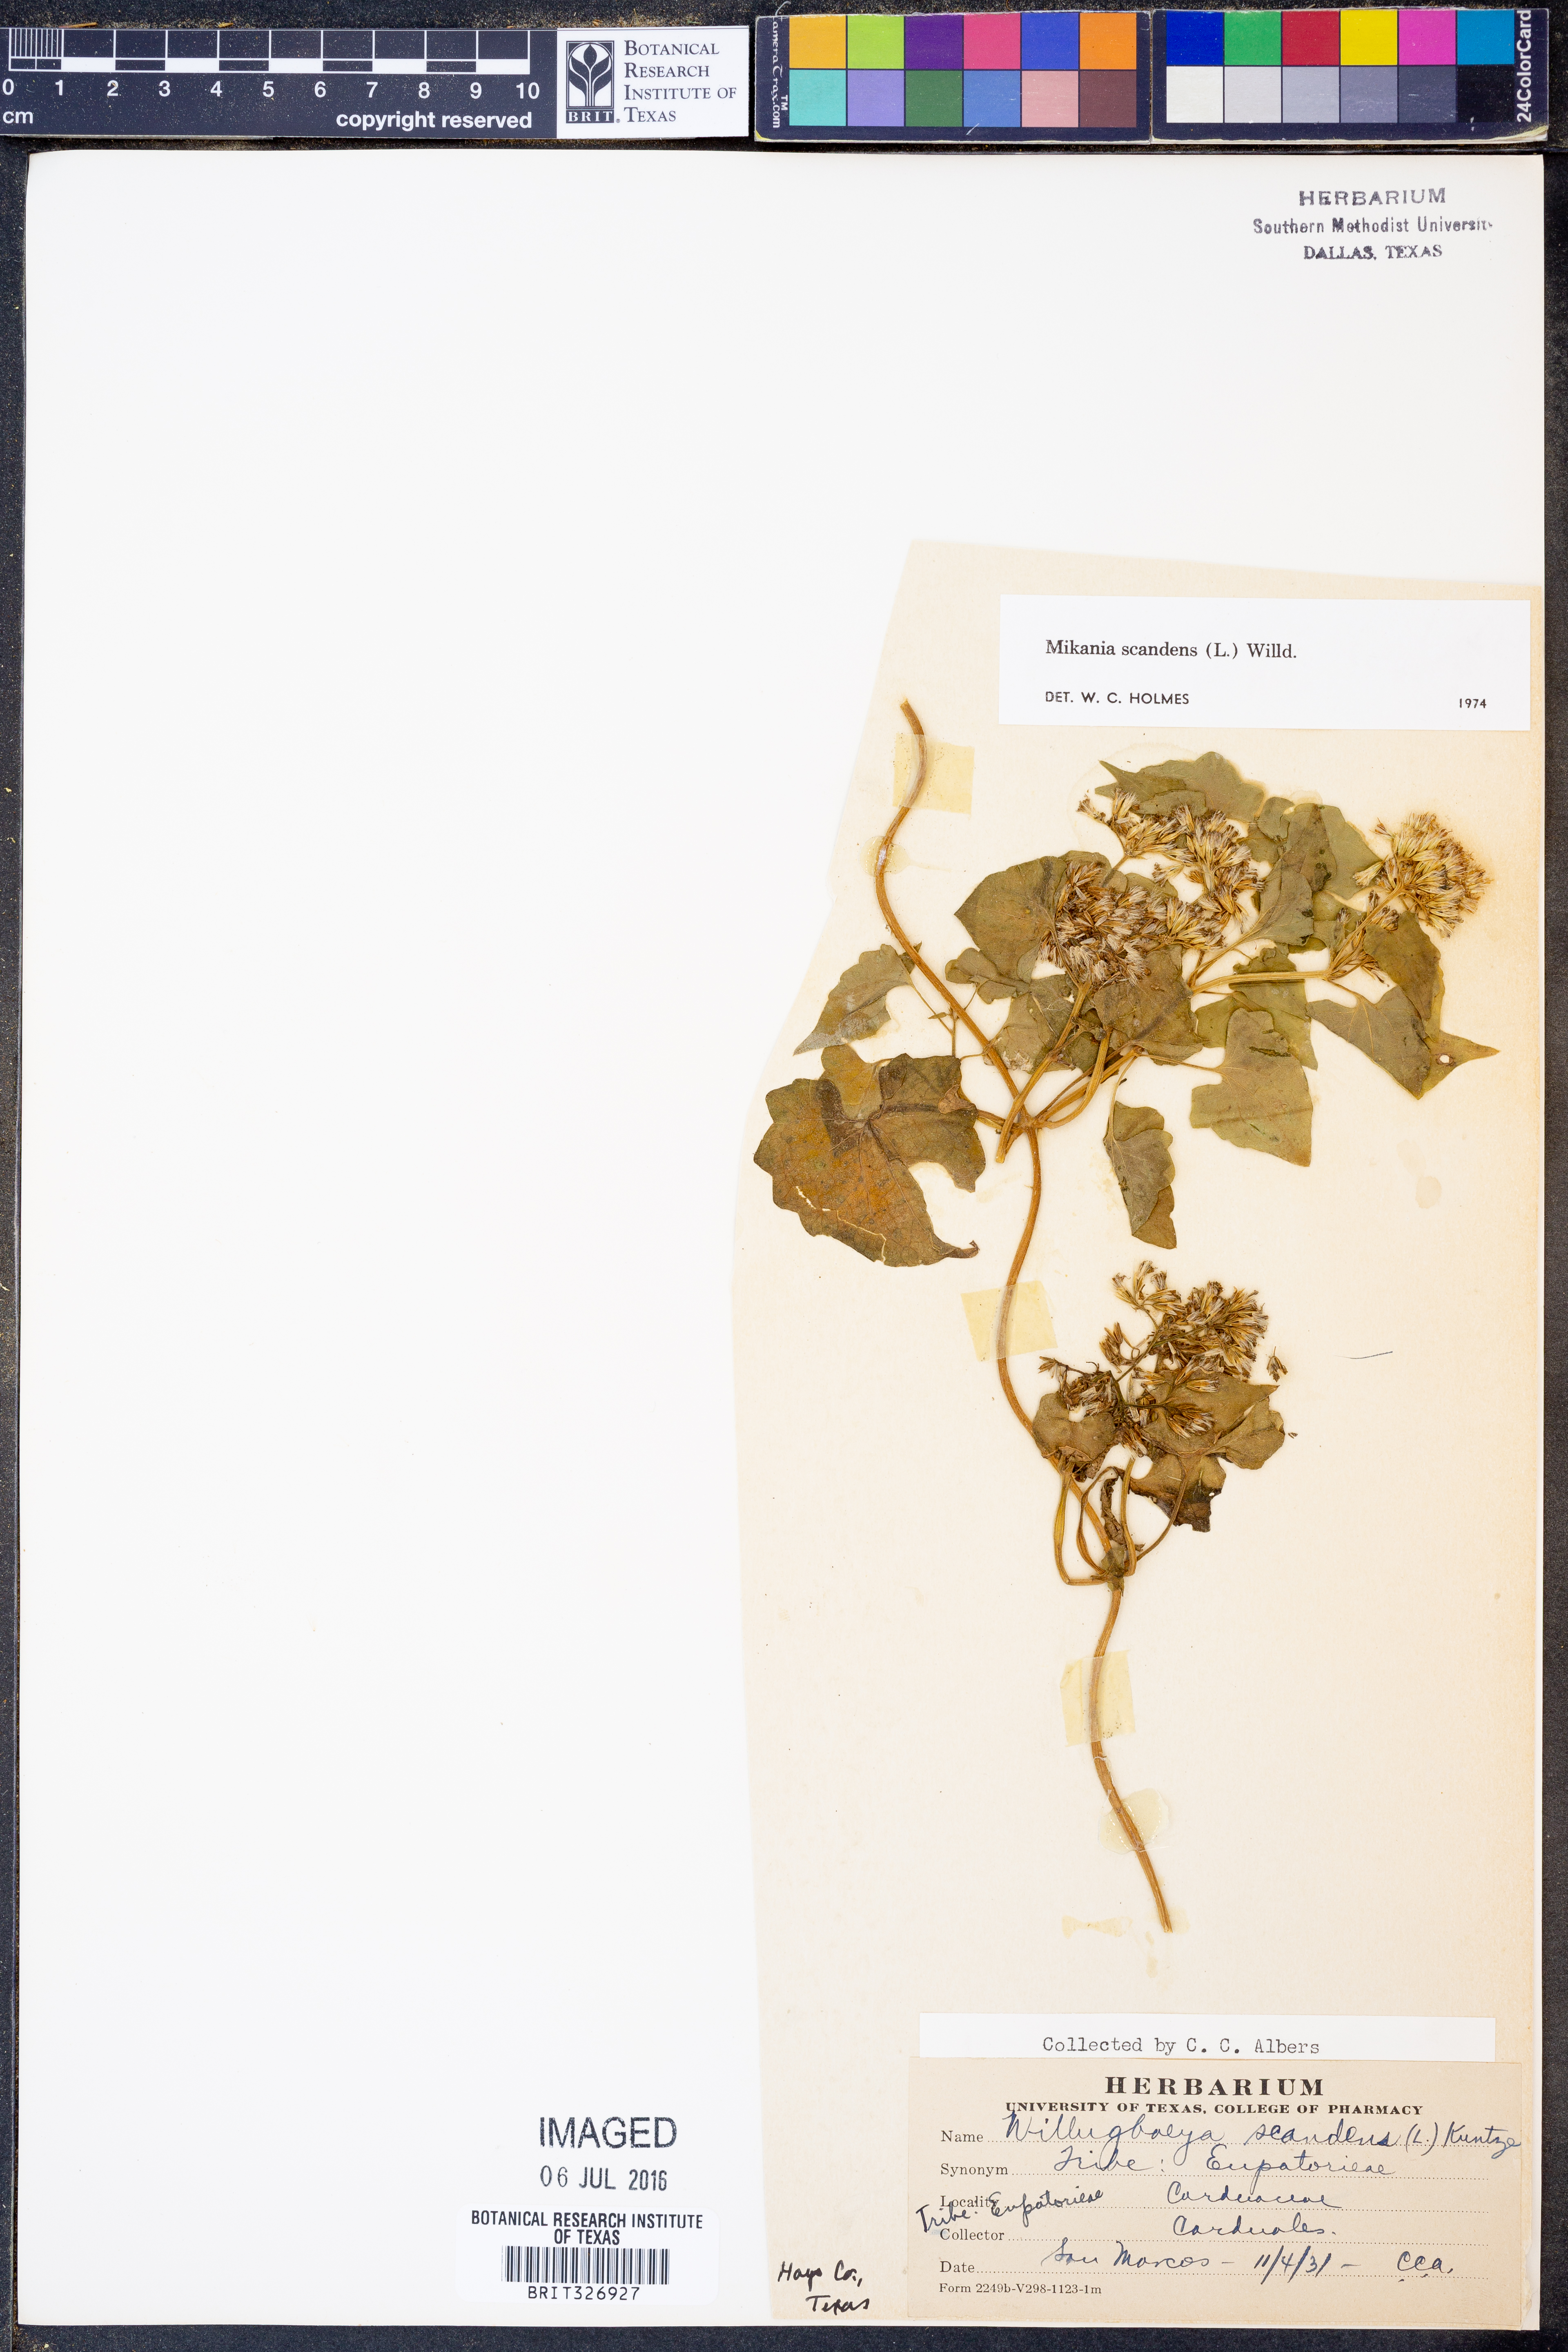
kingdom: Plantae
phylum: Tracheophyta
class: Magnoliopsida
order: Asterales
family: Asteraceae
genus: Mikania
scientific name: Mikania scandens
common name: Climbing hempvine
